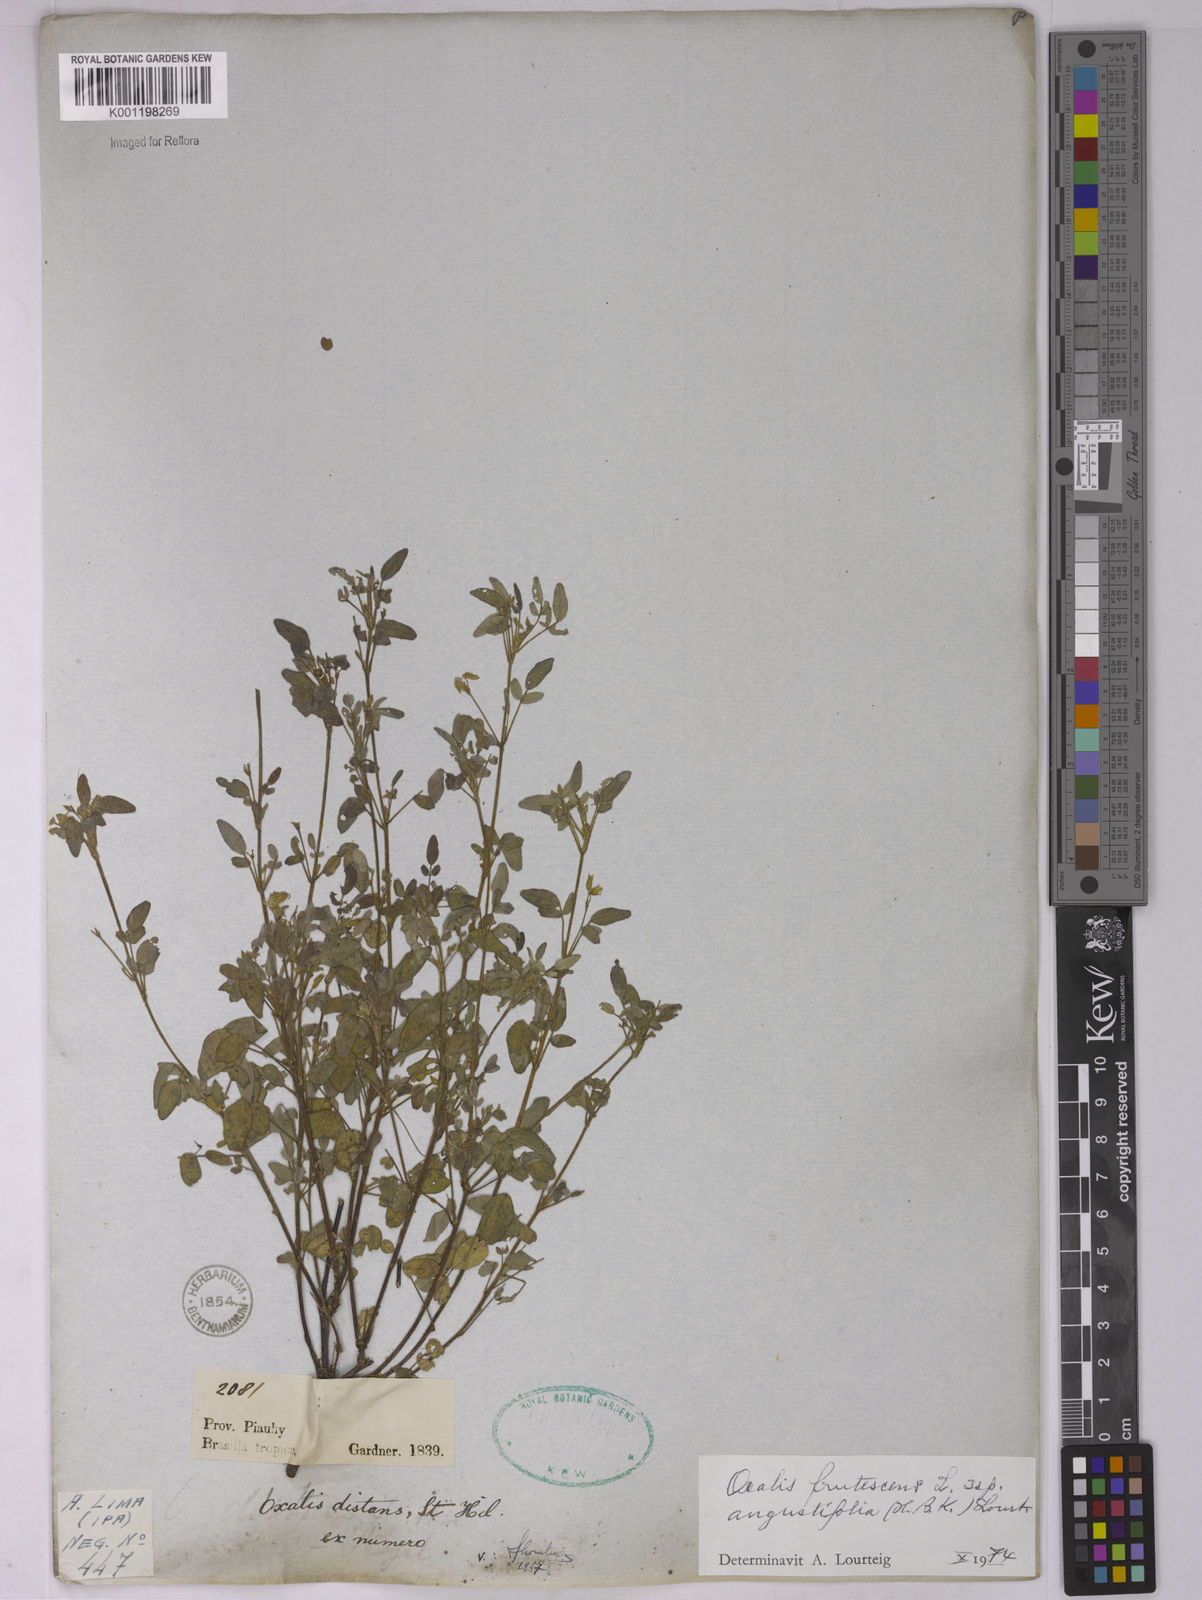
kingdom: Plantae
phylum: Tracheophyta
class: Magnoliopsida
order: Oxalidales
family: Oxalidaceae
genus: Oxalis
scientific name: Oxalis frutescens
